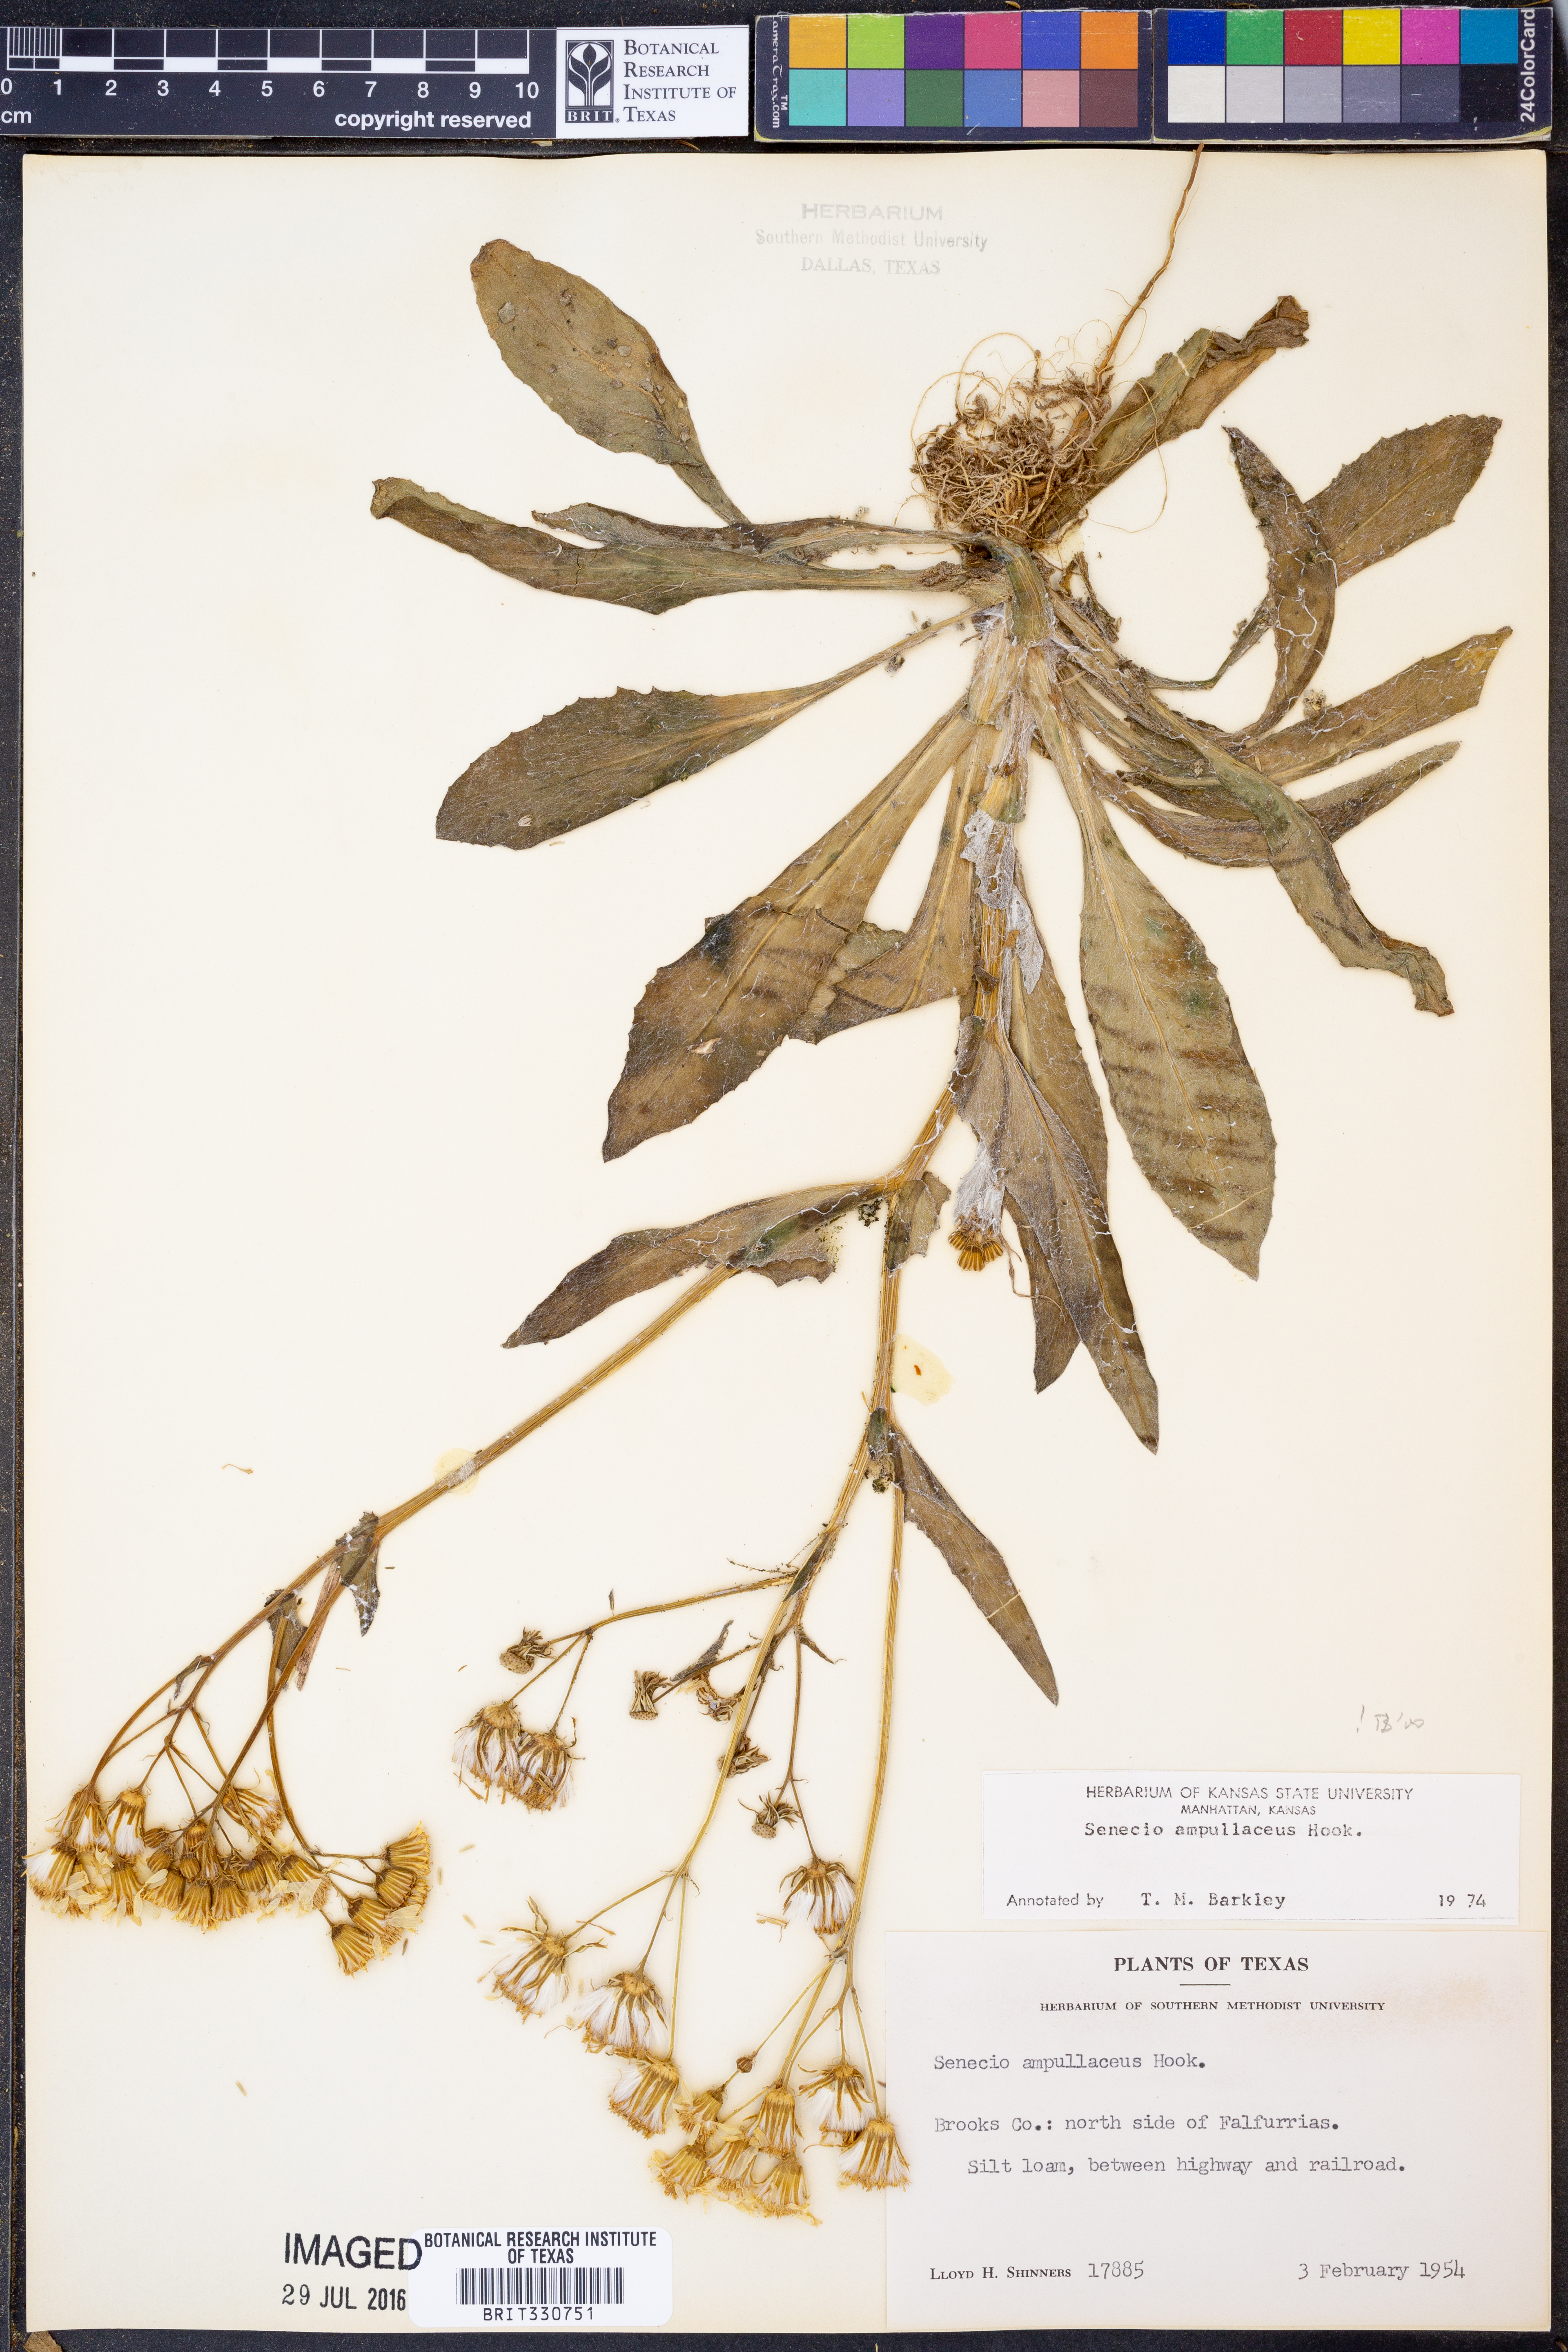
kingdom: Plantae
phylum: Tracheophyta
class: Magnoliopsida
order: Asterales
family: Asteraceae
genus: Senecio
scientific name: Senecio ampullaceus
